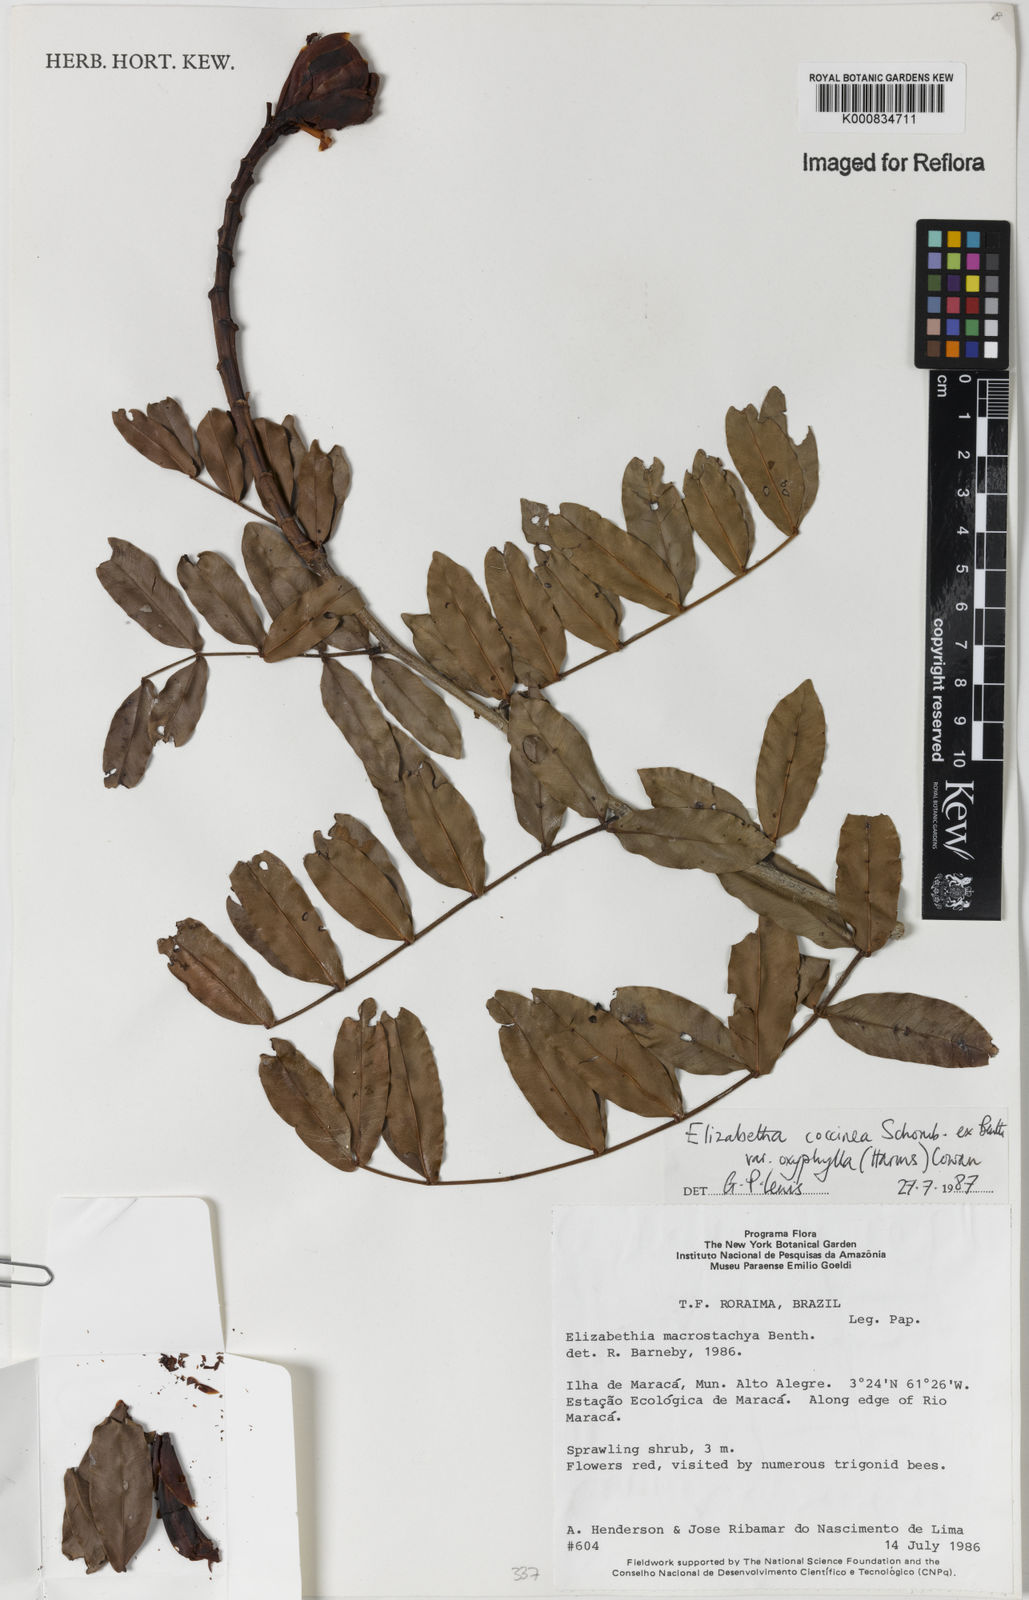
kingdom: Plantae
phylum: Tracheophyta
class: Magnoliopsida
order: Fabales
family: Fabaceae
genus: Paloue
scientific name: Paloue coccinea
